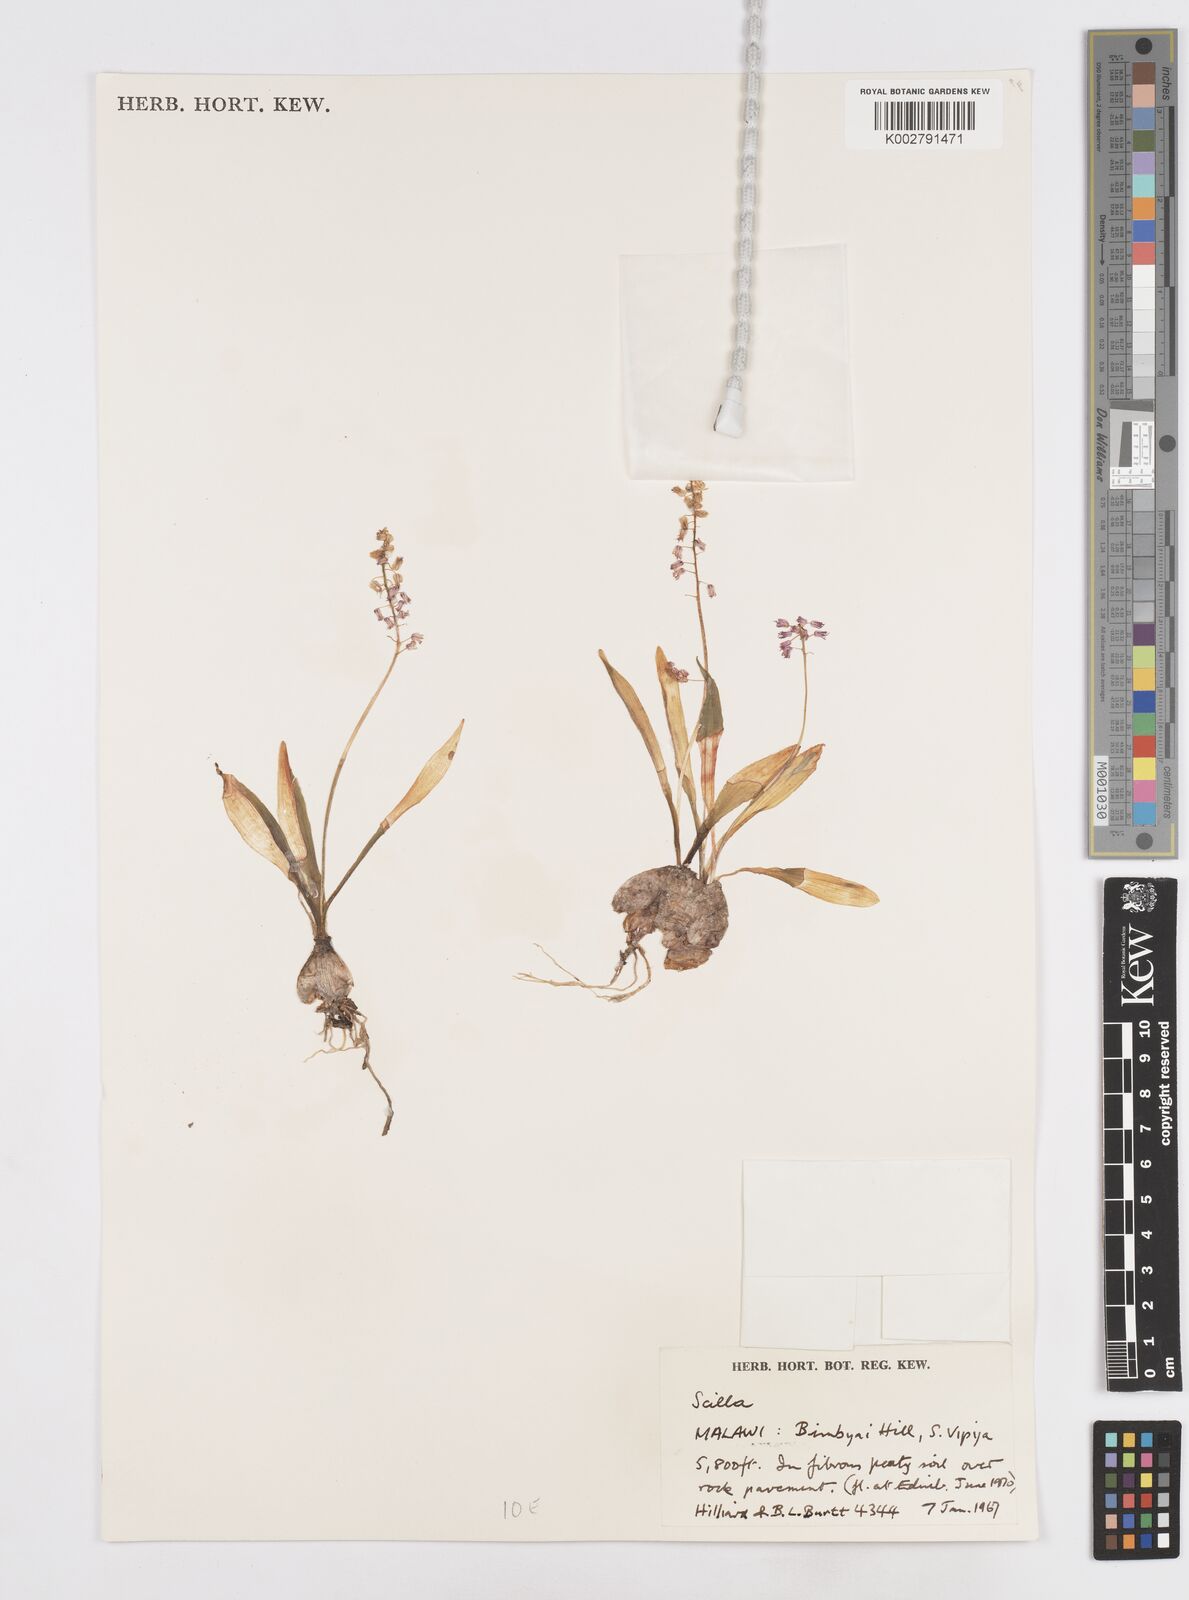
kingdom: Plantae
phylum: Tracheophyta
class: Liliopsida
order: Asparagales
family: Asparagaceae
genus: Scilla
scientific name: Scilla
